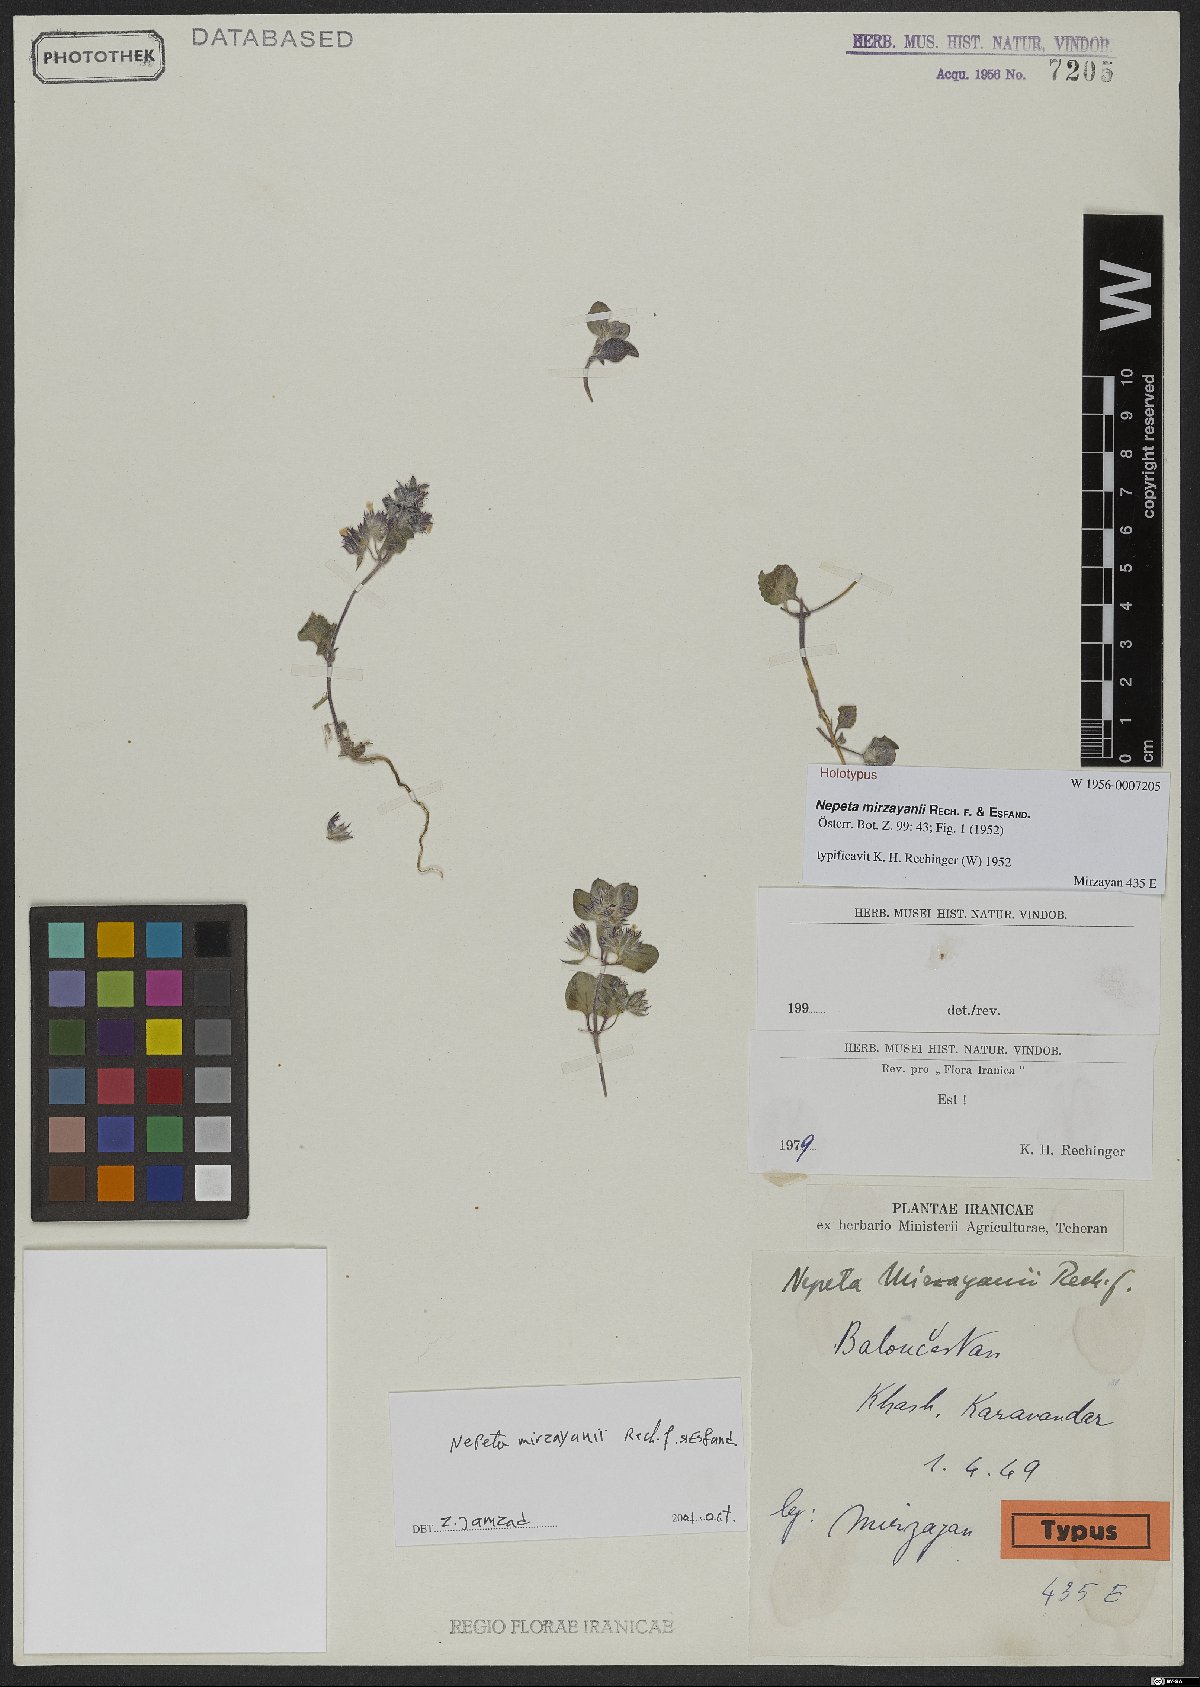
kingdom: Plantae
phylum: Tracheophyta
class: Magnoliopsida
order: Lamiales
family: Lamiaceae
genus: Nepeta
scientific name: Nepeta mirzayanii
